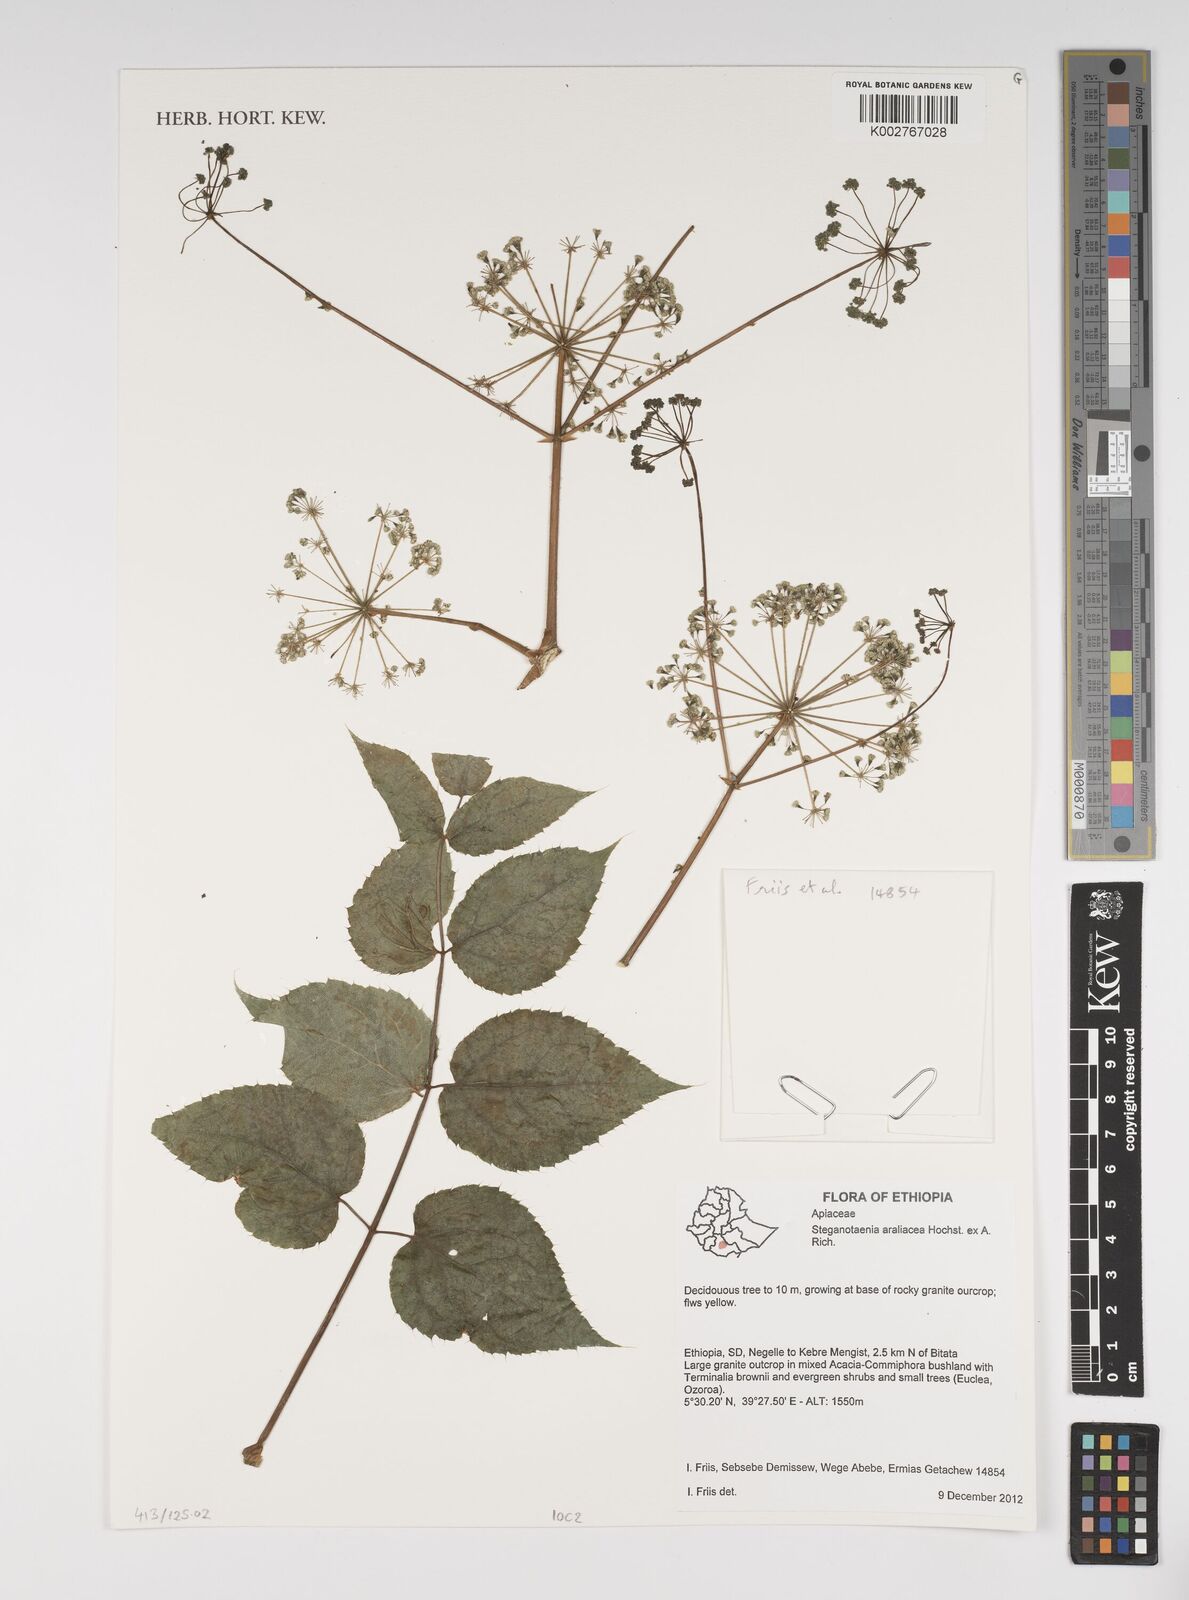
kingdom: Plantae
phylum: Tracheophyta
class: Magnoliopsida
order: Apiales
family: Apiaceae
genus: Steganotaenia
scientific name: Steganotaenia araliacea
